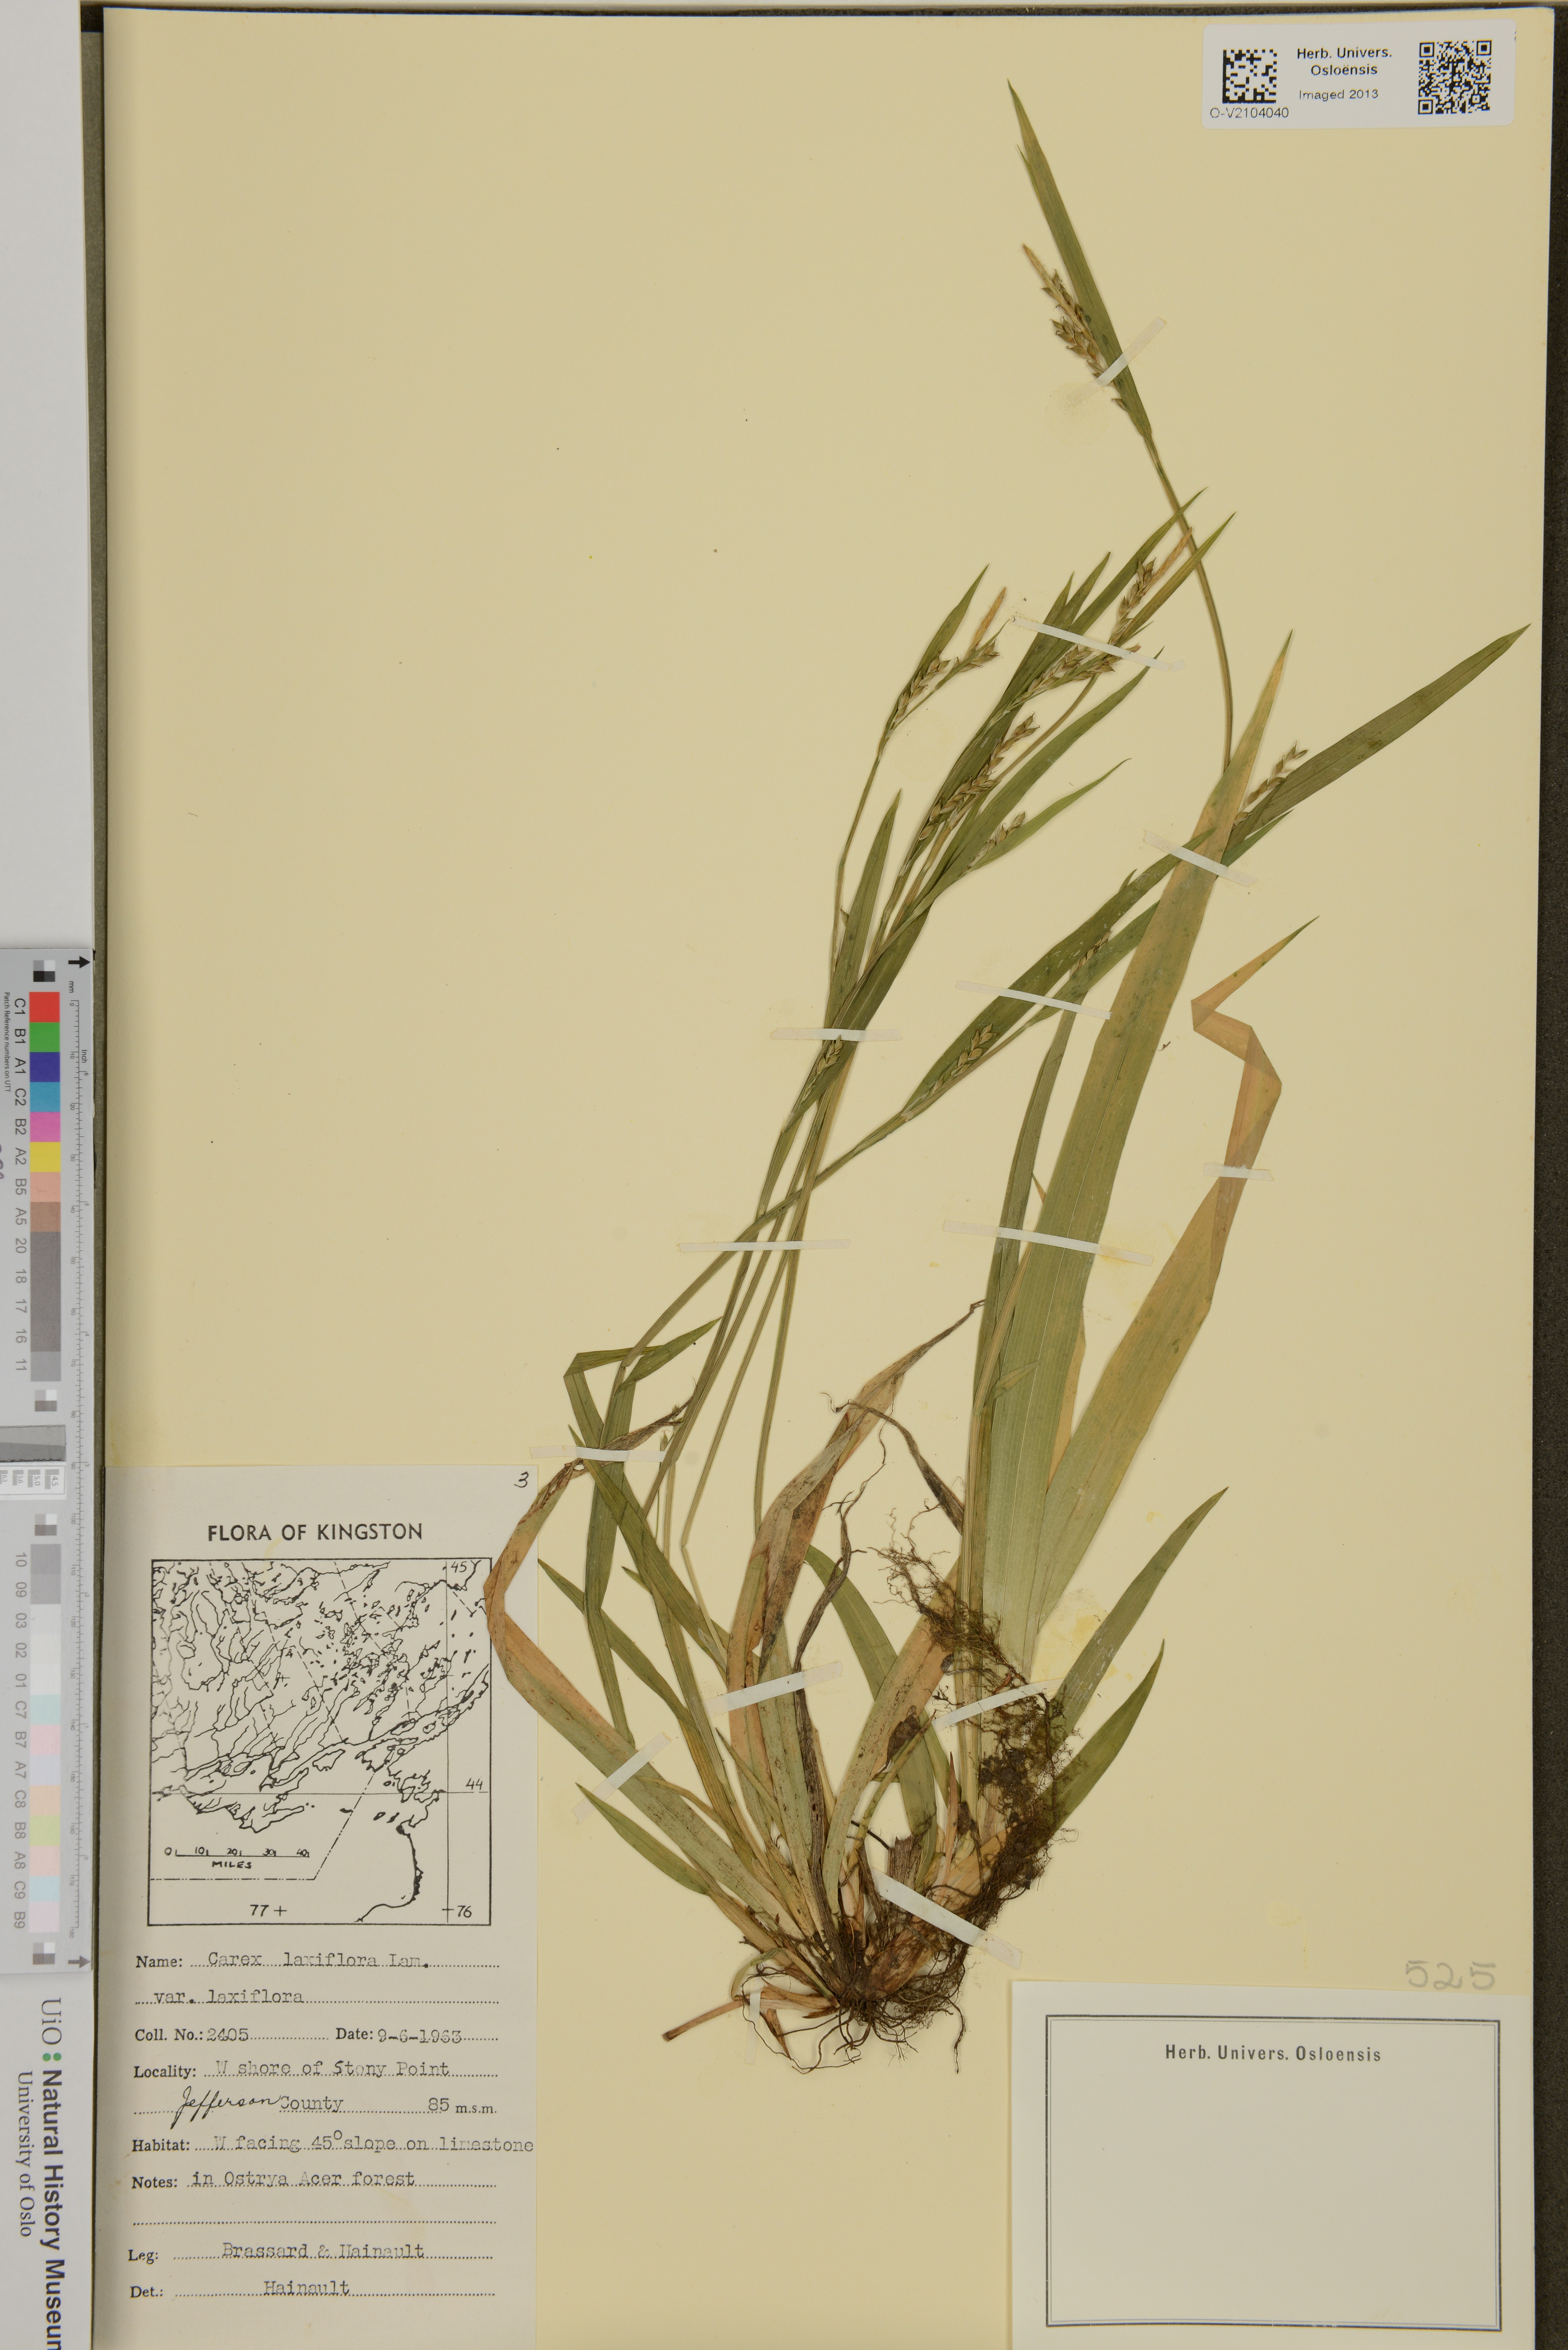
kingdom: Plantae
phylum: Tracheophyta
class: Liliopsida
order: Poales
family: Cyperaceae
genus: Carex
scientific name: Carex laxiflora
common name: Beech wood sedge
